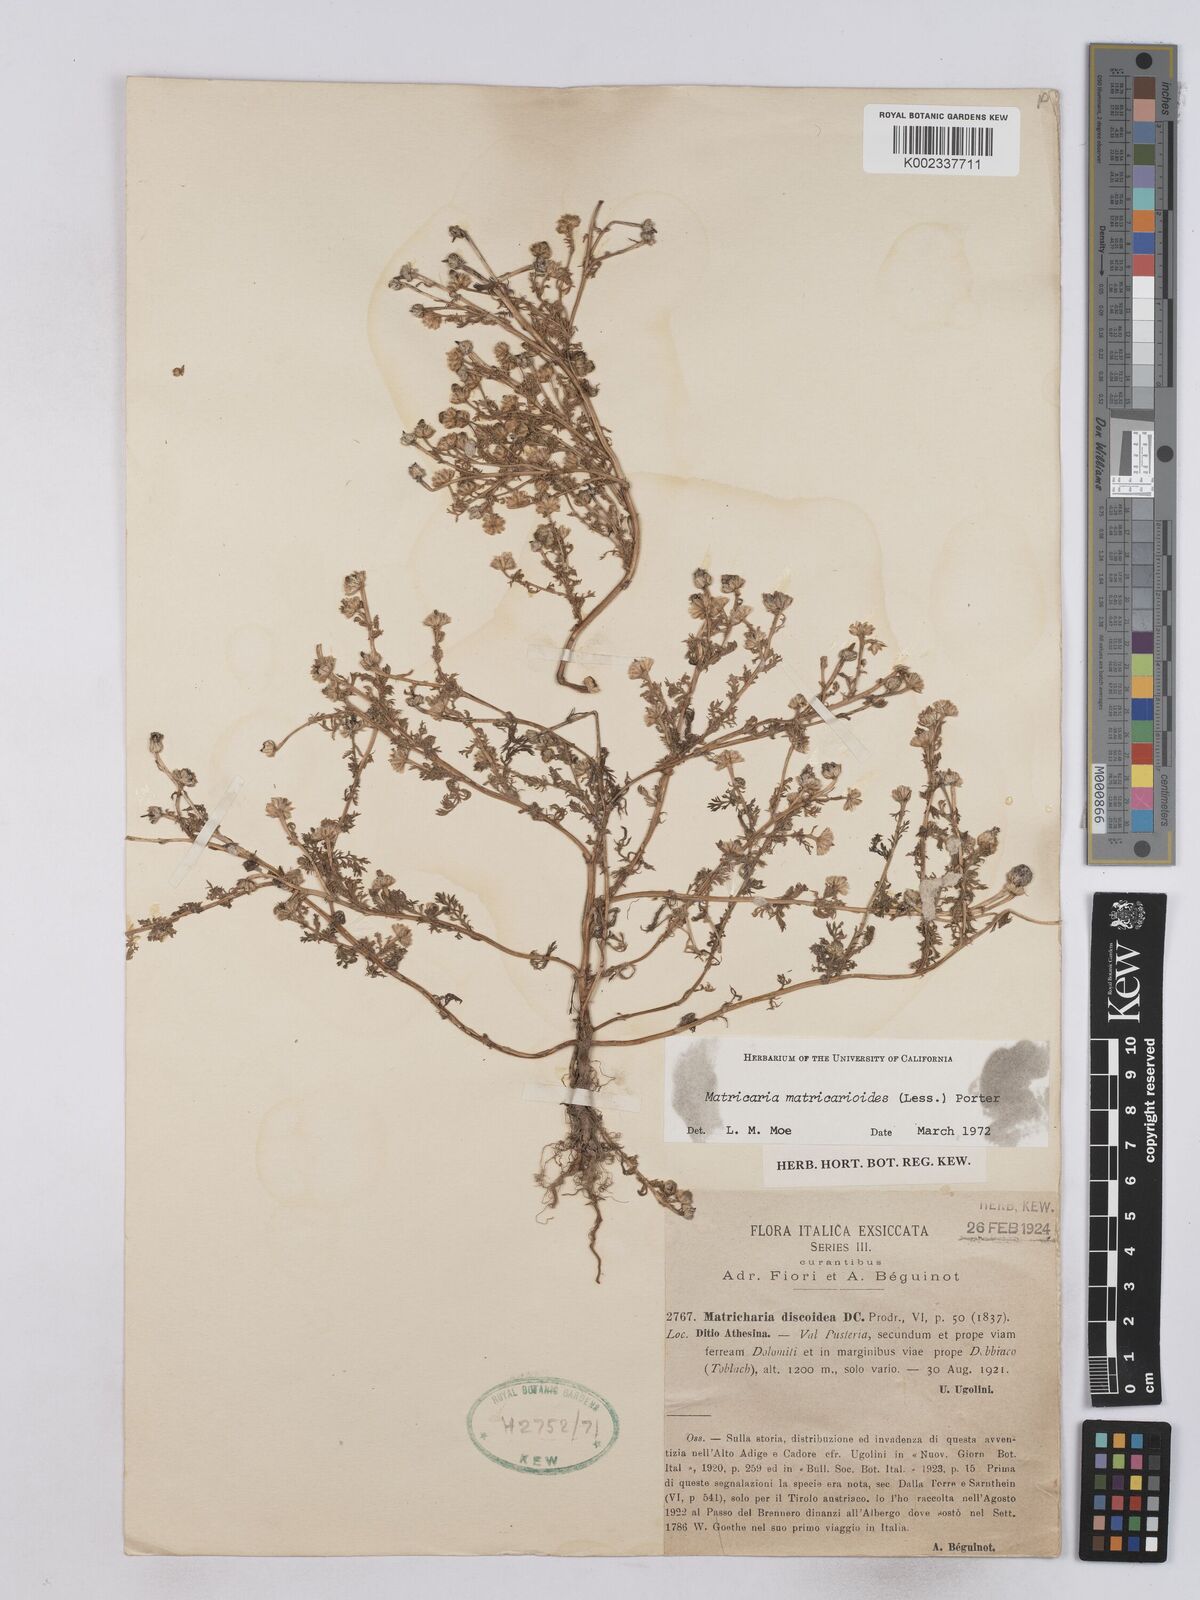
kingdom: Plantae
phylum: Tracheophyta
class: Magnoliopsida
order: Asterales
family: Asteraceae
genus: Matricaria
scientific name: Matricaria discoidea
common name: Disc mayweed
